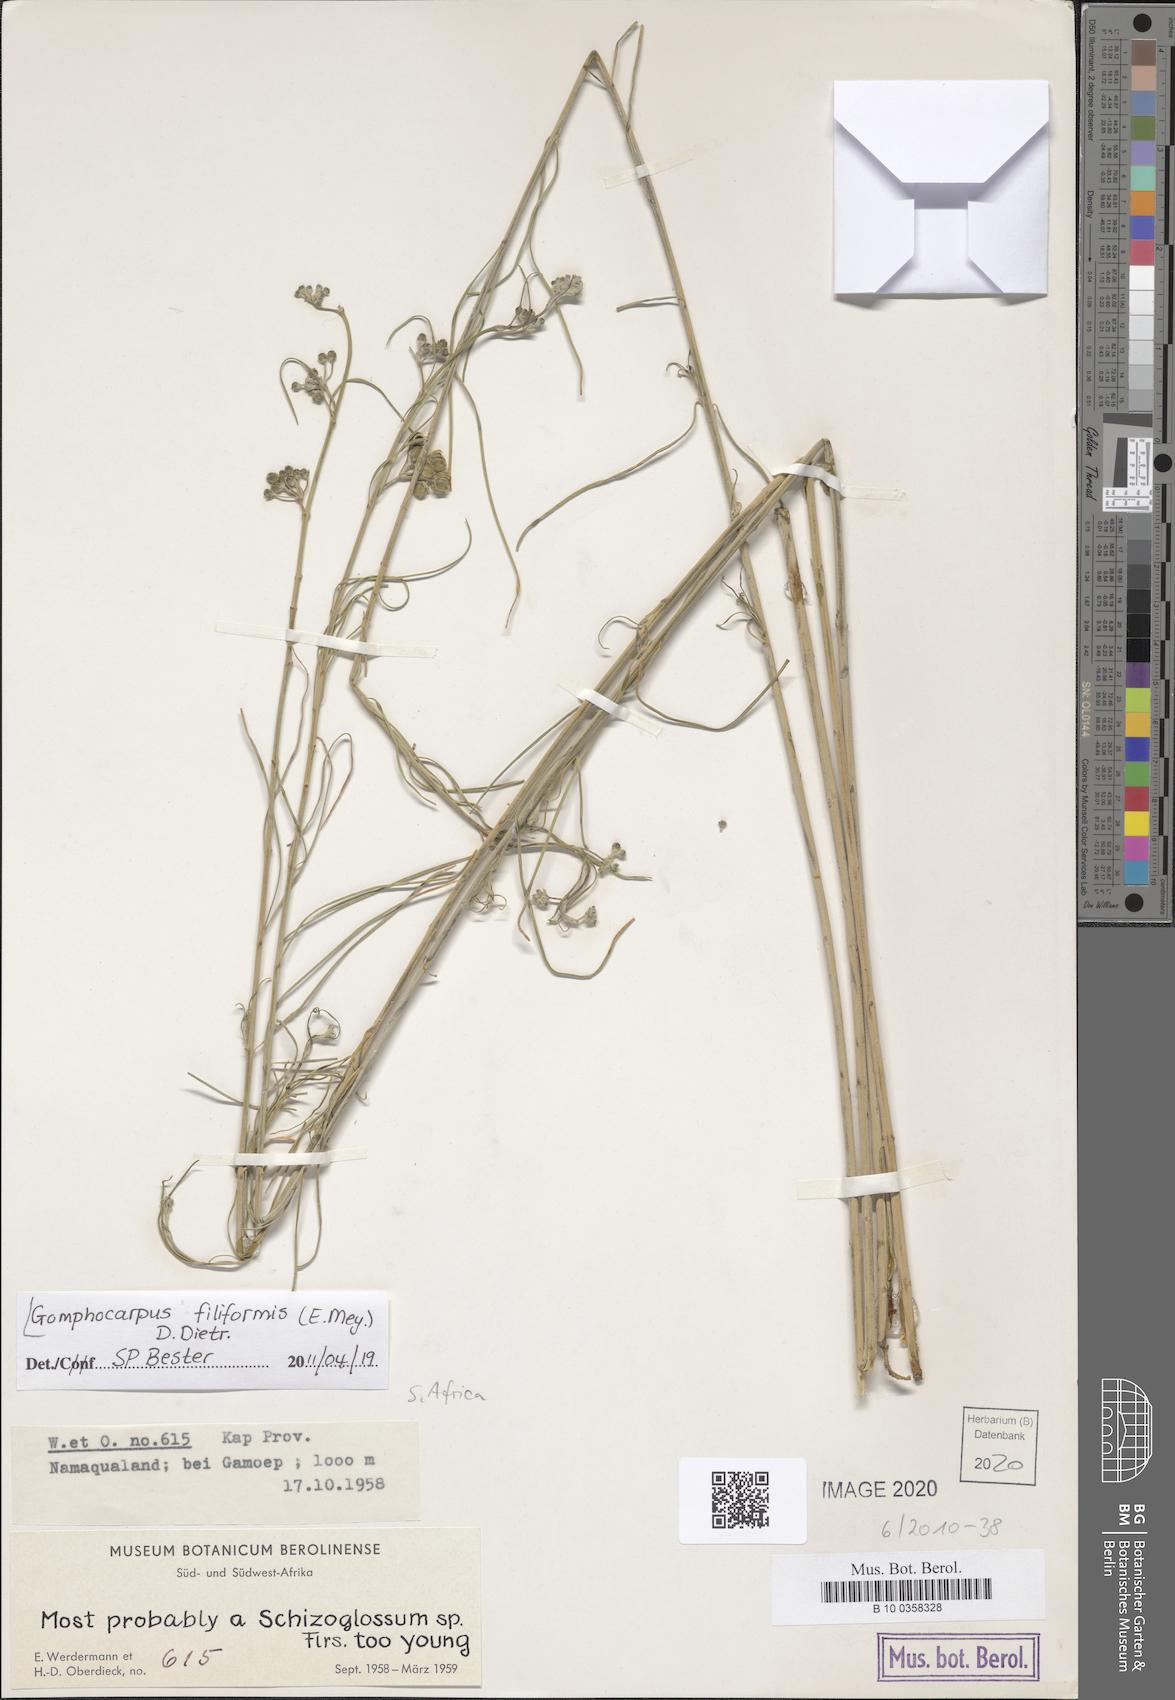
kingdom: Plantae
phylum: Tracheophyta
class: Magnoliopsida
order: Gentianales
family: Apocynaceae
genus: Gomphocarpus
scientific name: Gomphocarpus filiformis
